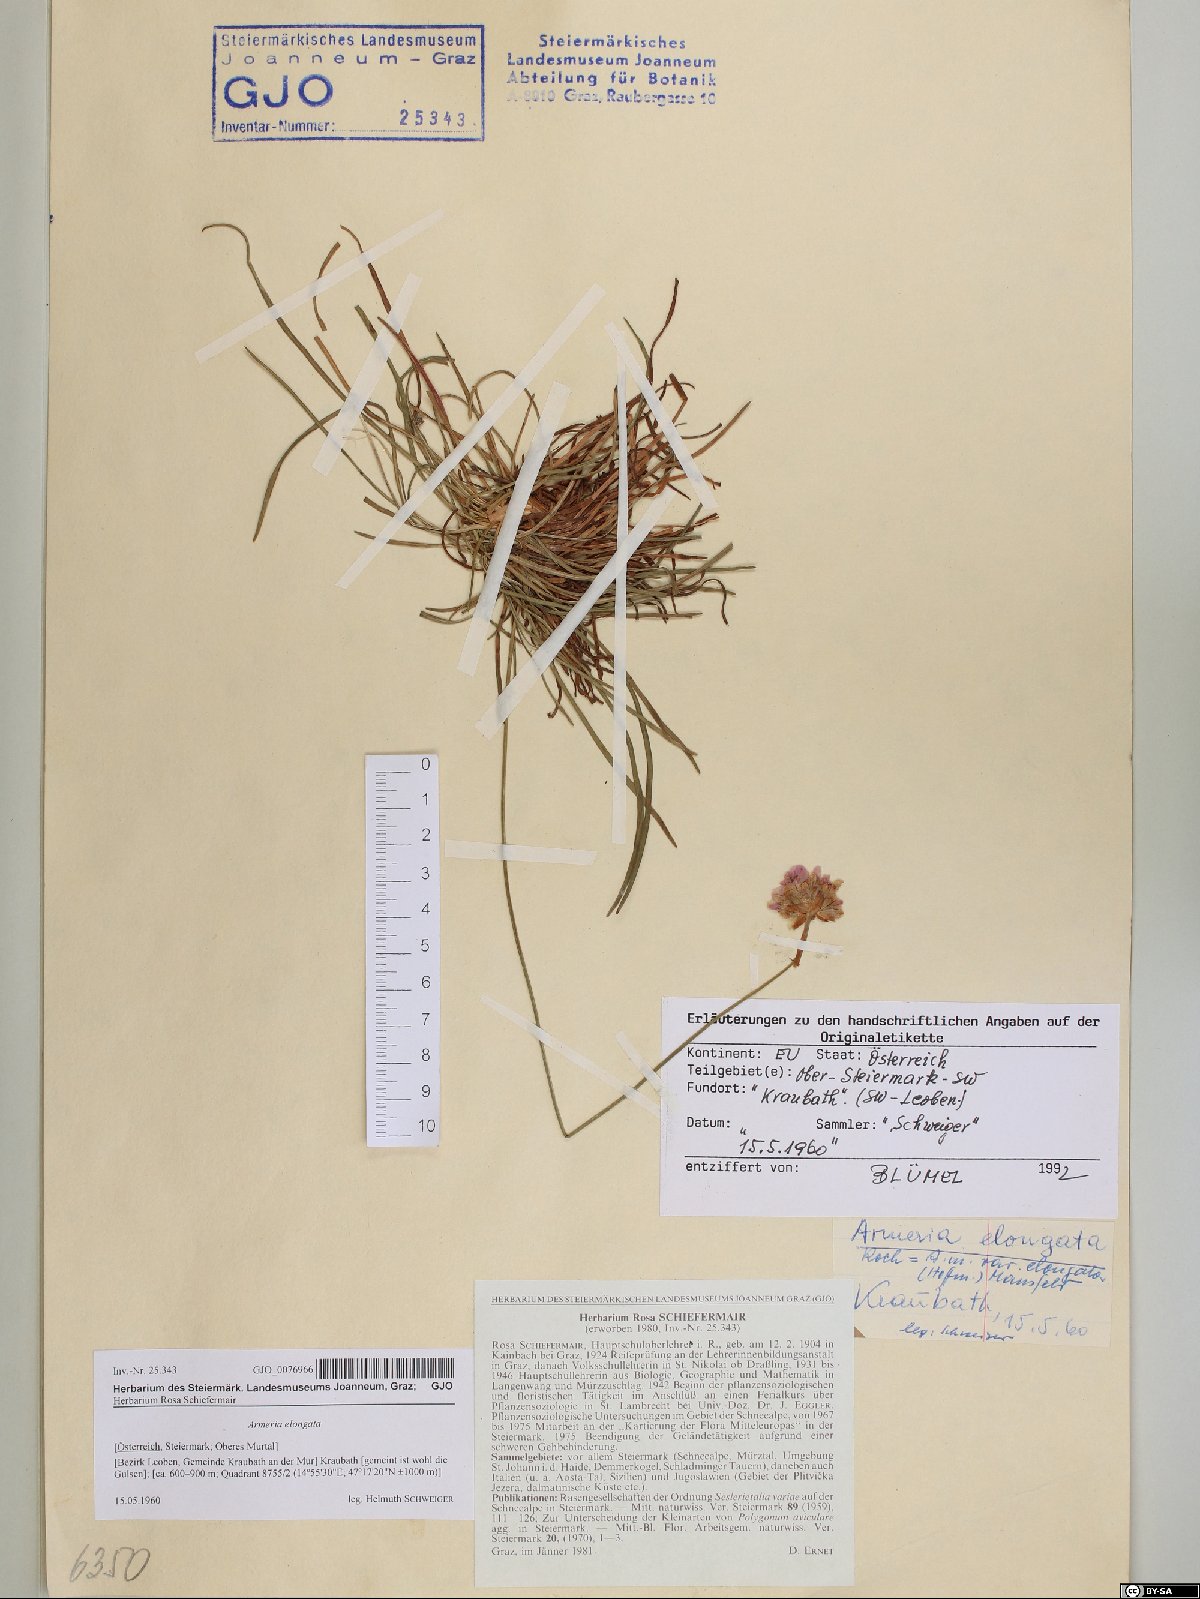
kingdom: Plantae
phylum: Tracheophyta
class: Magnoliopsida
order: Caryophyllales
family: Plumbaginaceae
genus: Armeria
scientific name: Armeria maritima
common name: Thrift
